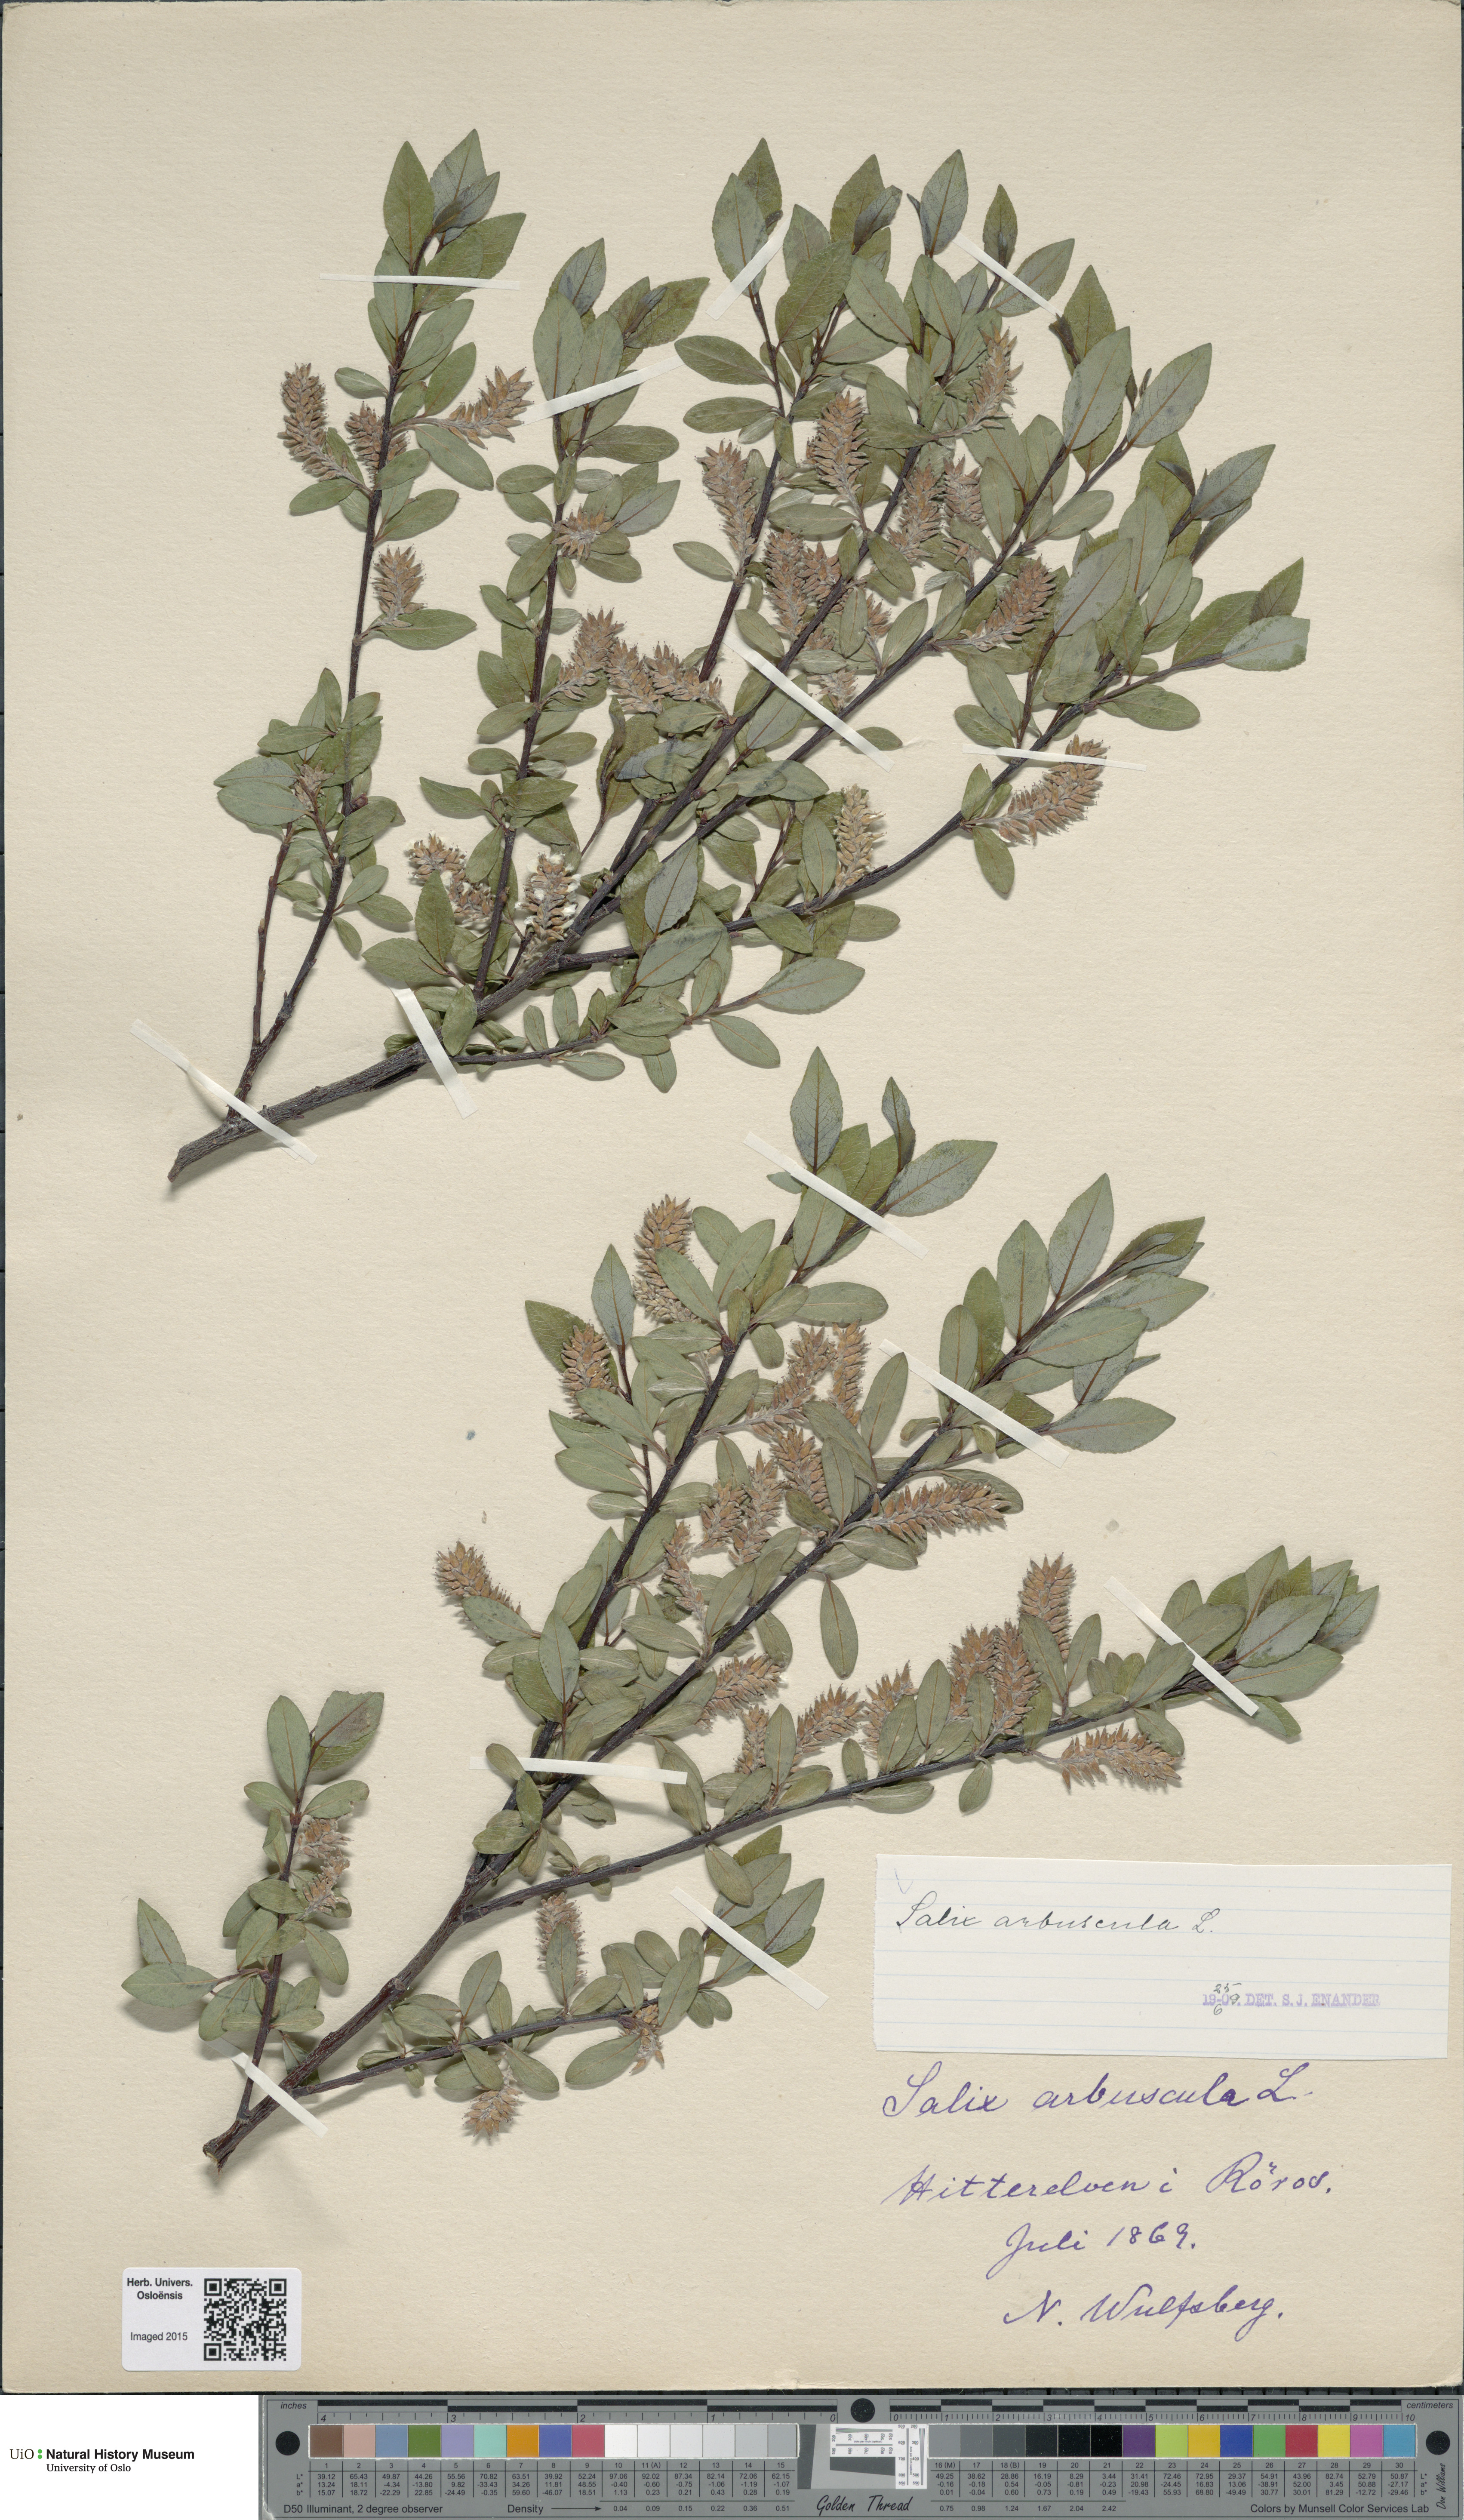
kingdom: Plantae
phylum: Tracheophyta
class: Magnoliopsida
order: Malpighiales
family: Salicaceae
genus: Salix
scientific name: Salix arbuscula
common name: Mountain willow
